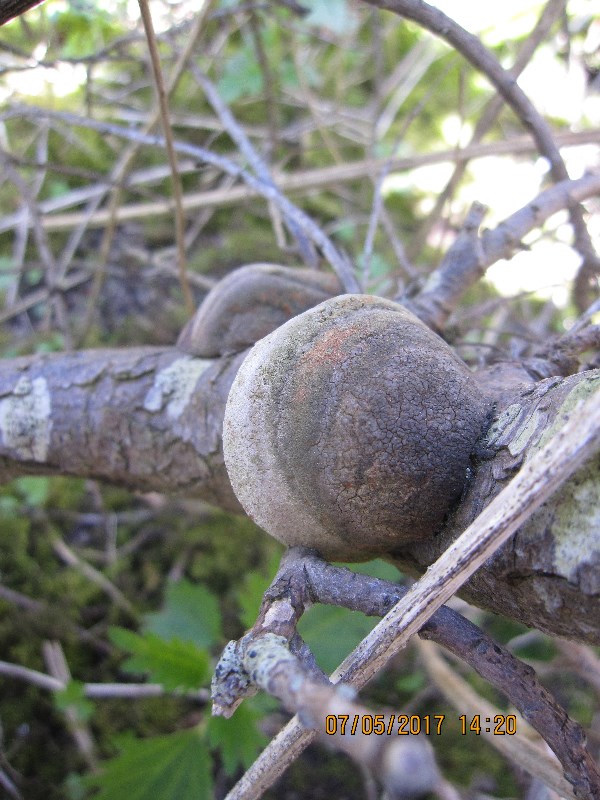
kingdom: Fungi
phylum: Basidiomycota
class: Agaricomycetes
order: Hymenochaetales
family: Hymenochaetaceae
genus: Fomitiporia
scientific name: Fomitiporia hippophaeicola
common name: havtorn-ildporesvamp
